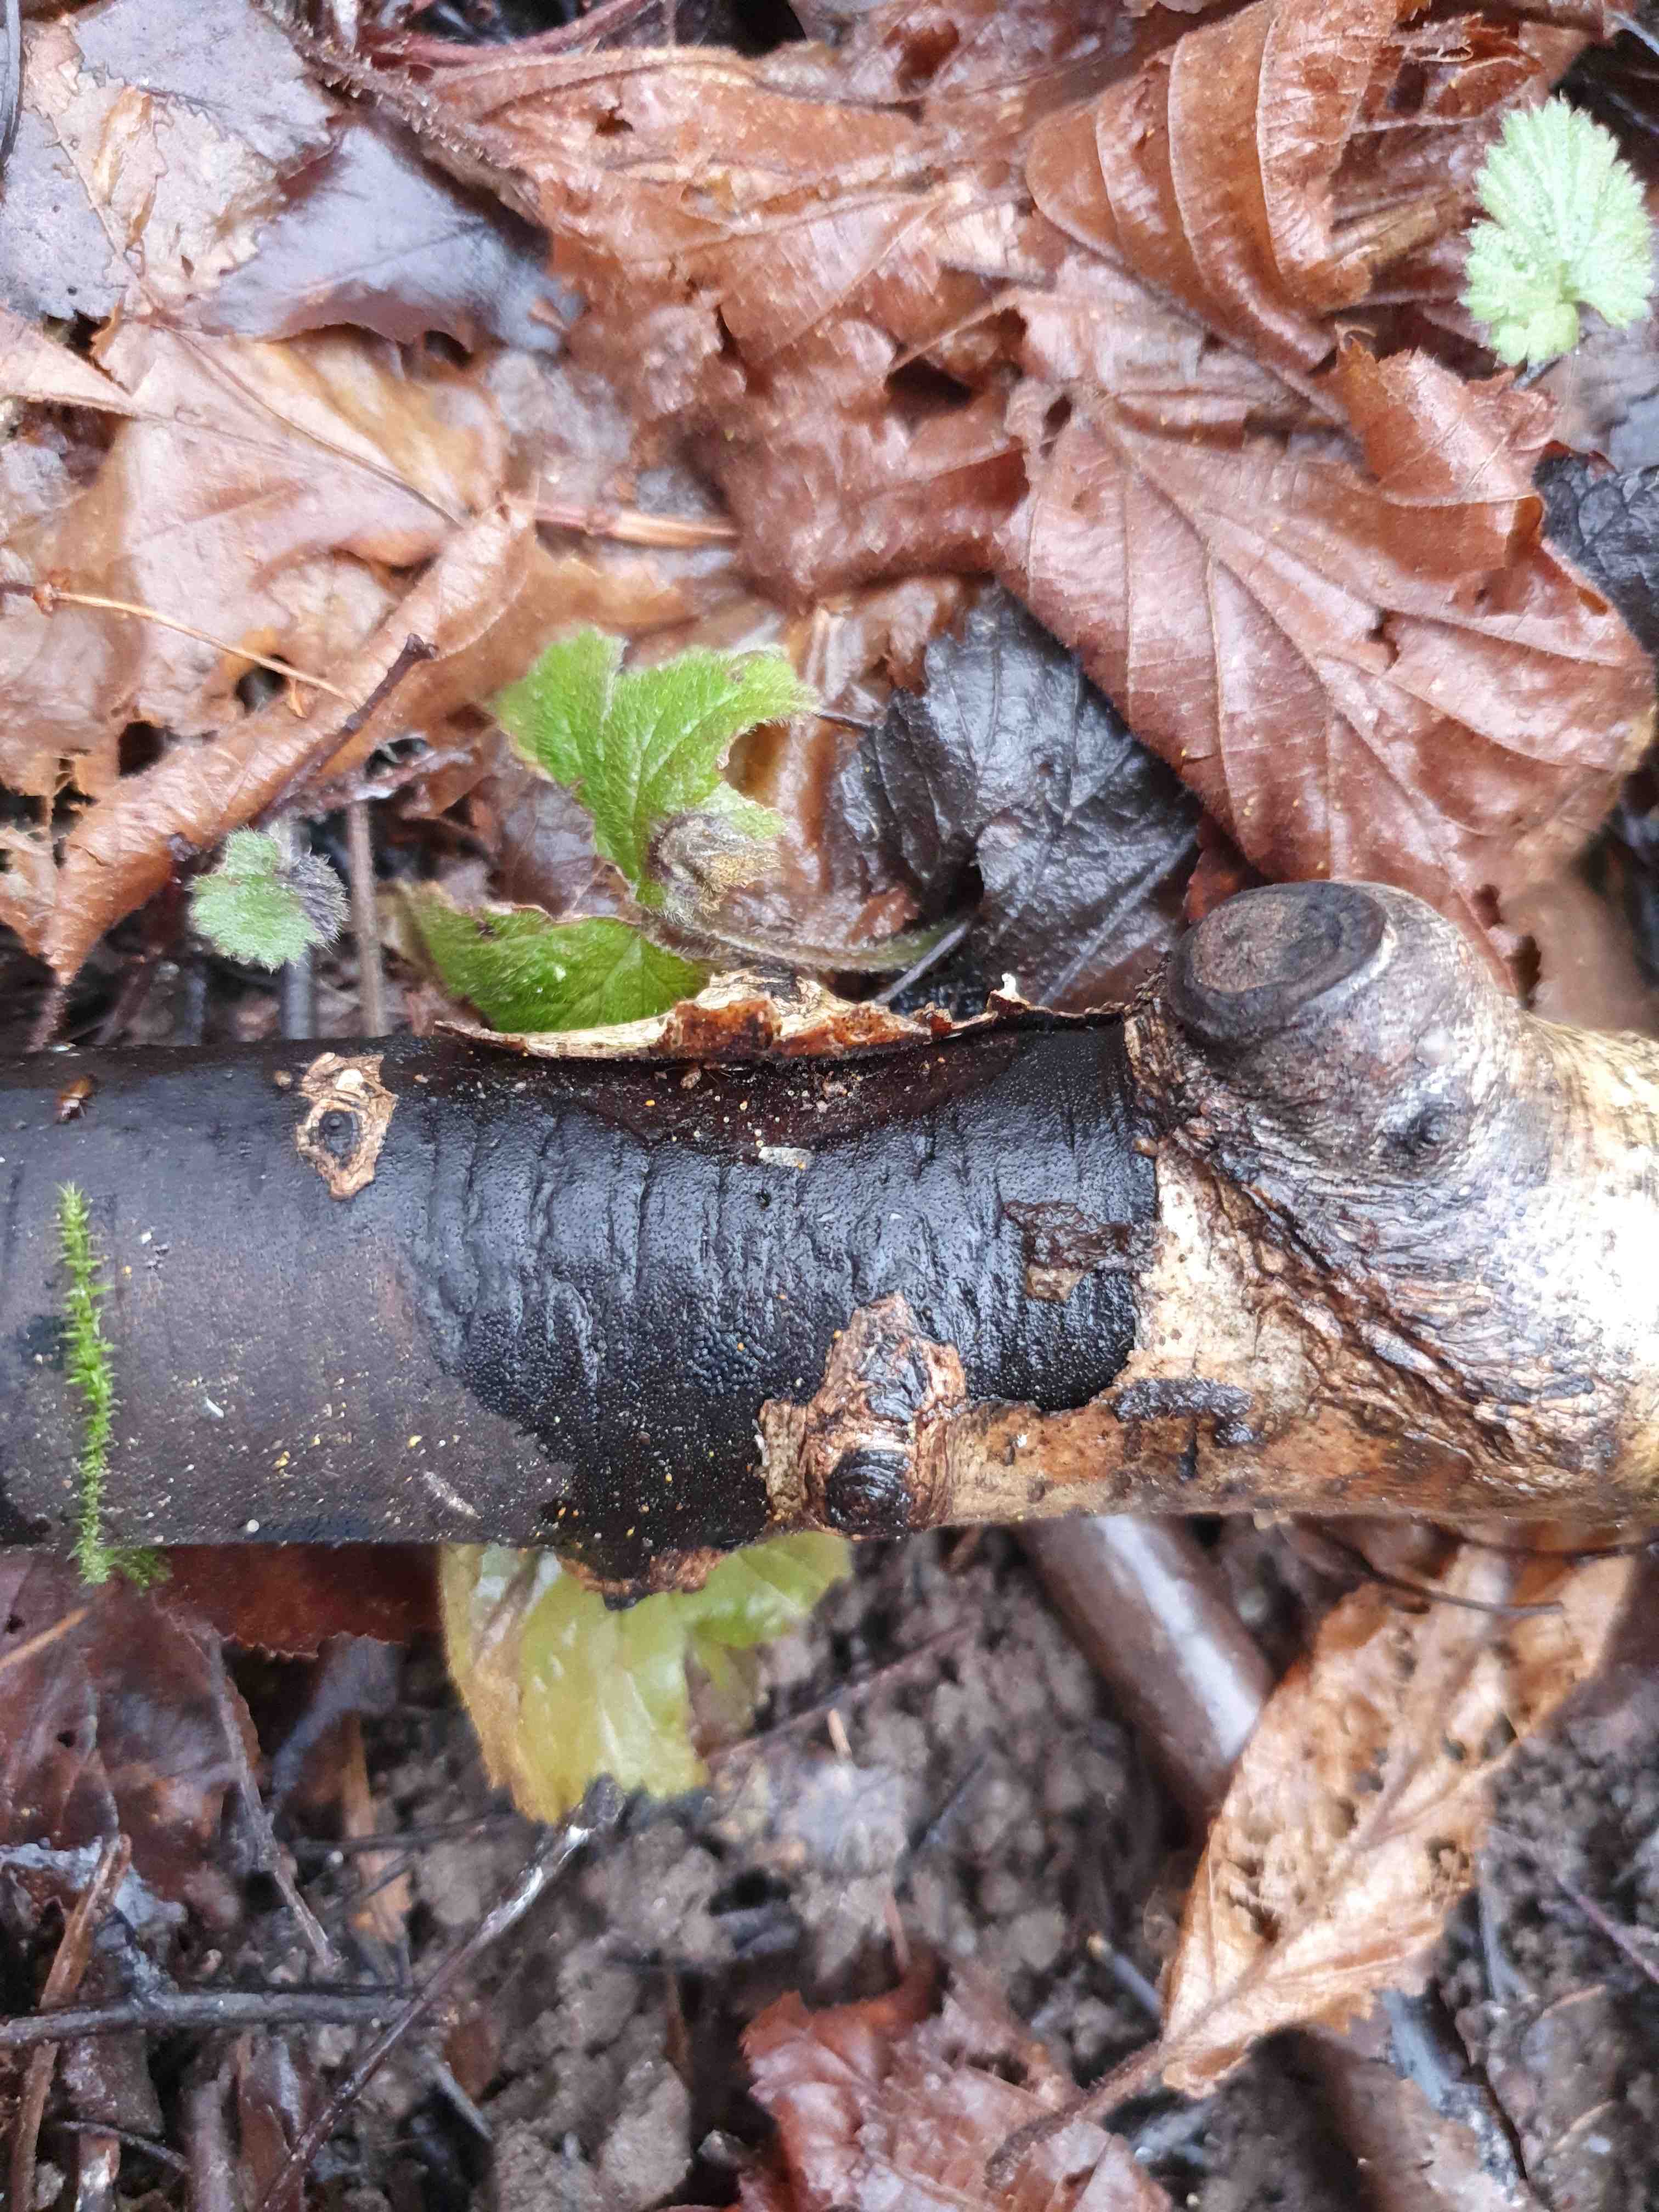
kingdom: Fungi
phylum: Ascomycota
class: Sordariomycetes
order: Xylariales
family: Diatrypaceae
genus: Diatrype
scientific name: Diatrype
